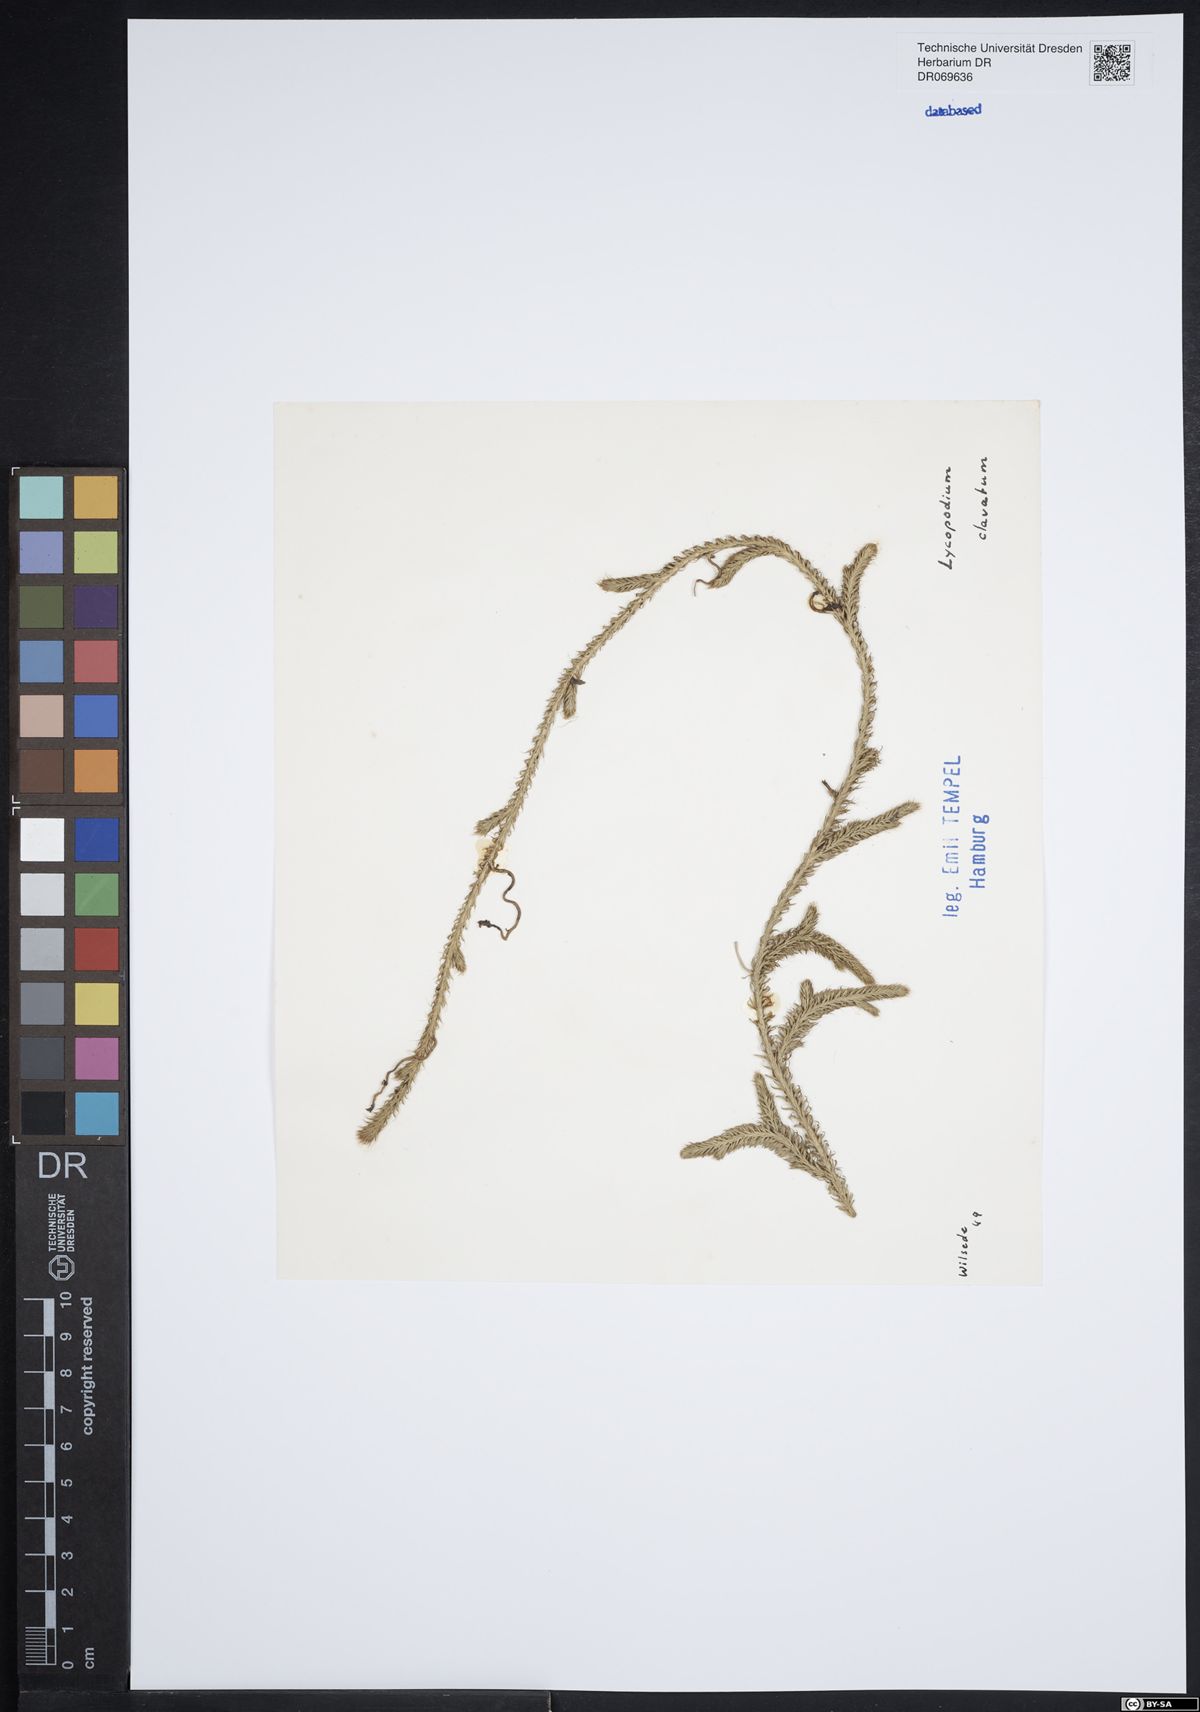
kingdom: Plantae
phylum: Tracheophyta
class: Lycopodiopsida
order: Lycopodiales
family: Lycopodiaceae
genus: Lycopodium
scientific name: Lycopodium clavatum
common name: Stag's-horn clubmoss
